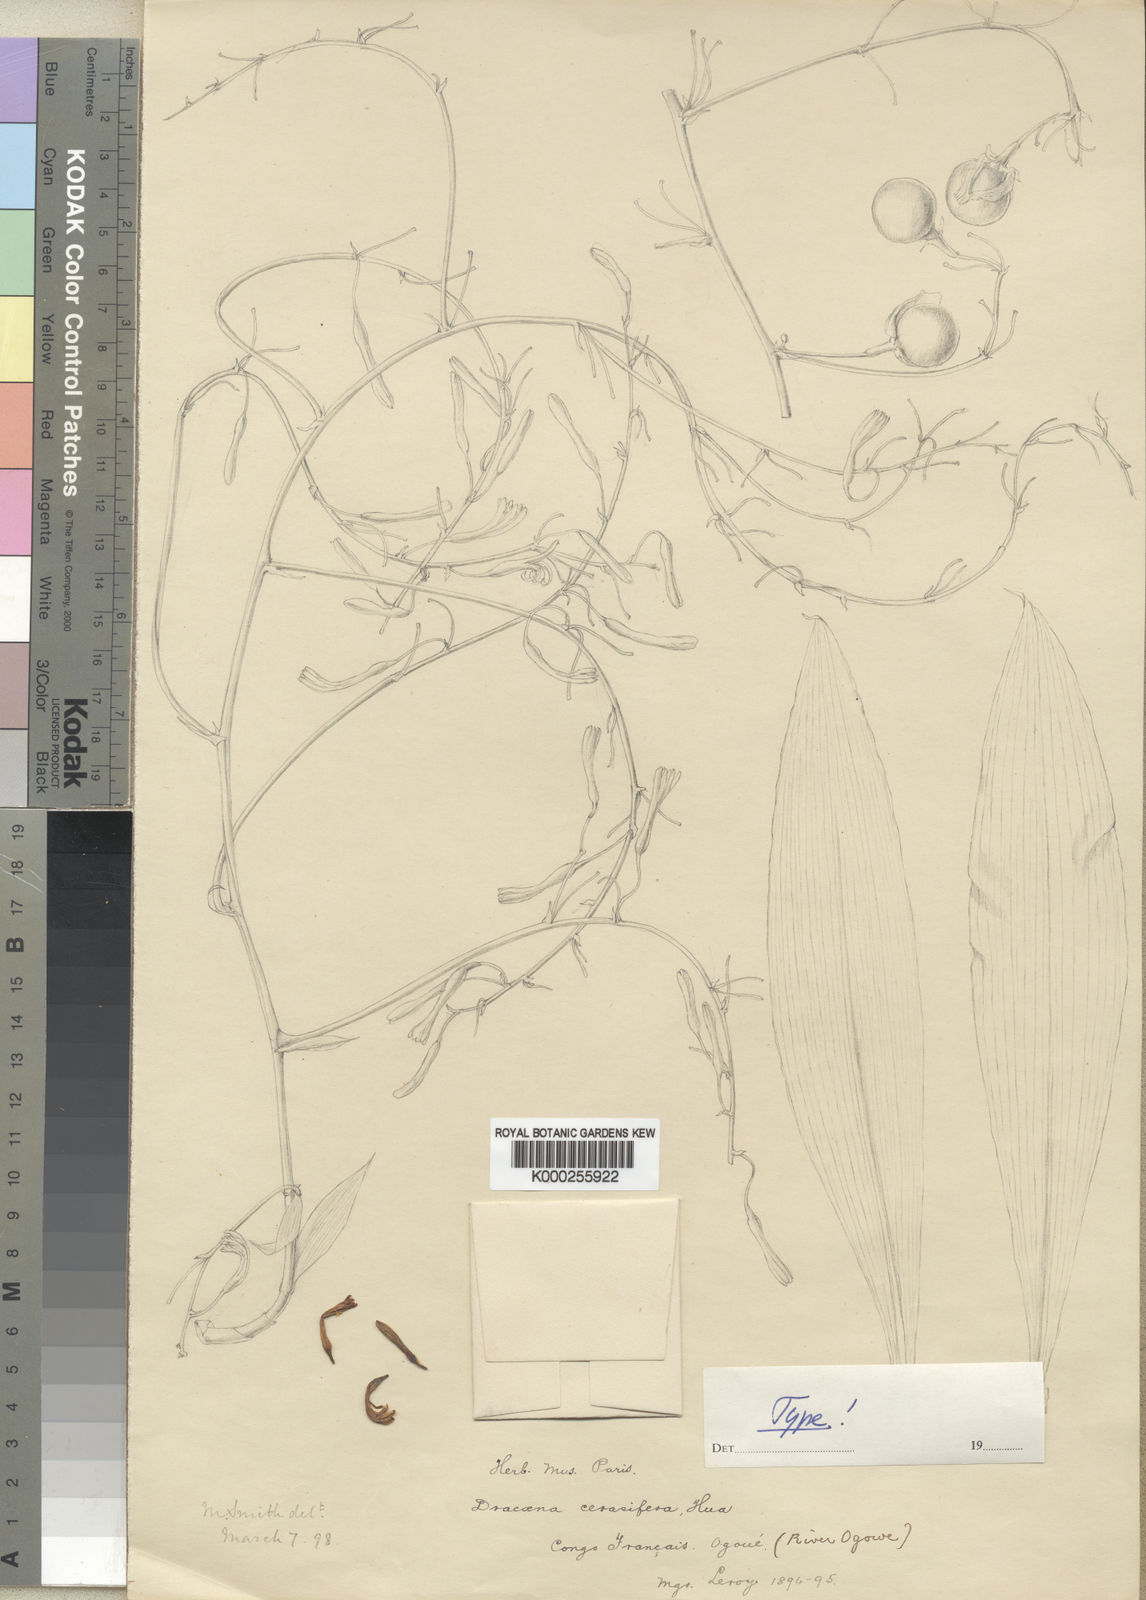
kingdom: Plantae
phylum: Tracheophyta
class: Liliopsida
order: Asparagales
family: Asparagaceae
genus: Dracaena
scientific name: Dracaena cerasifera
